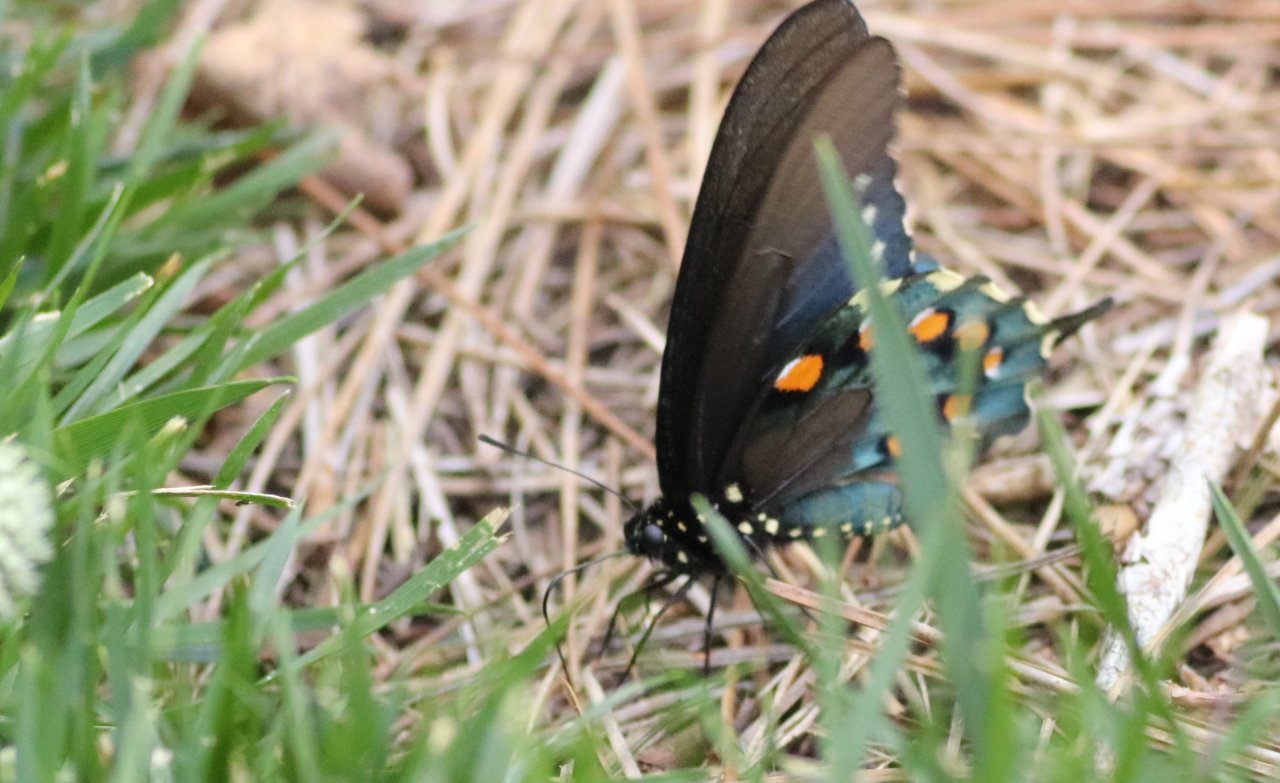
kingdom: Animalia
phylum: Arthropoda
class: Insecta
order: Lepidoptera
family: Papilionidae
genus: Battus
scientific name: Battus philenor
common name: Pipevine Swallowtail
